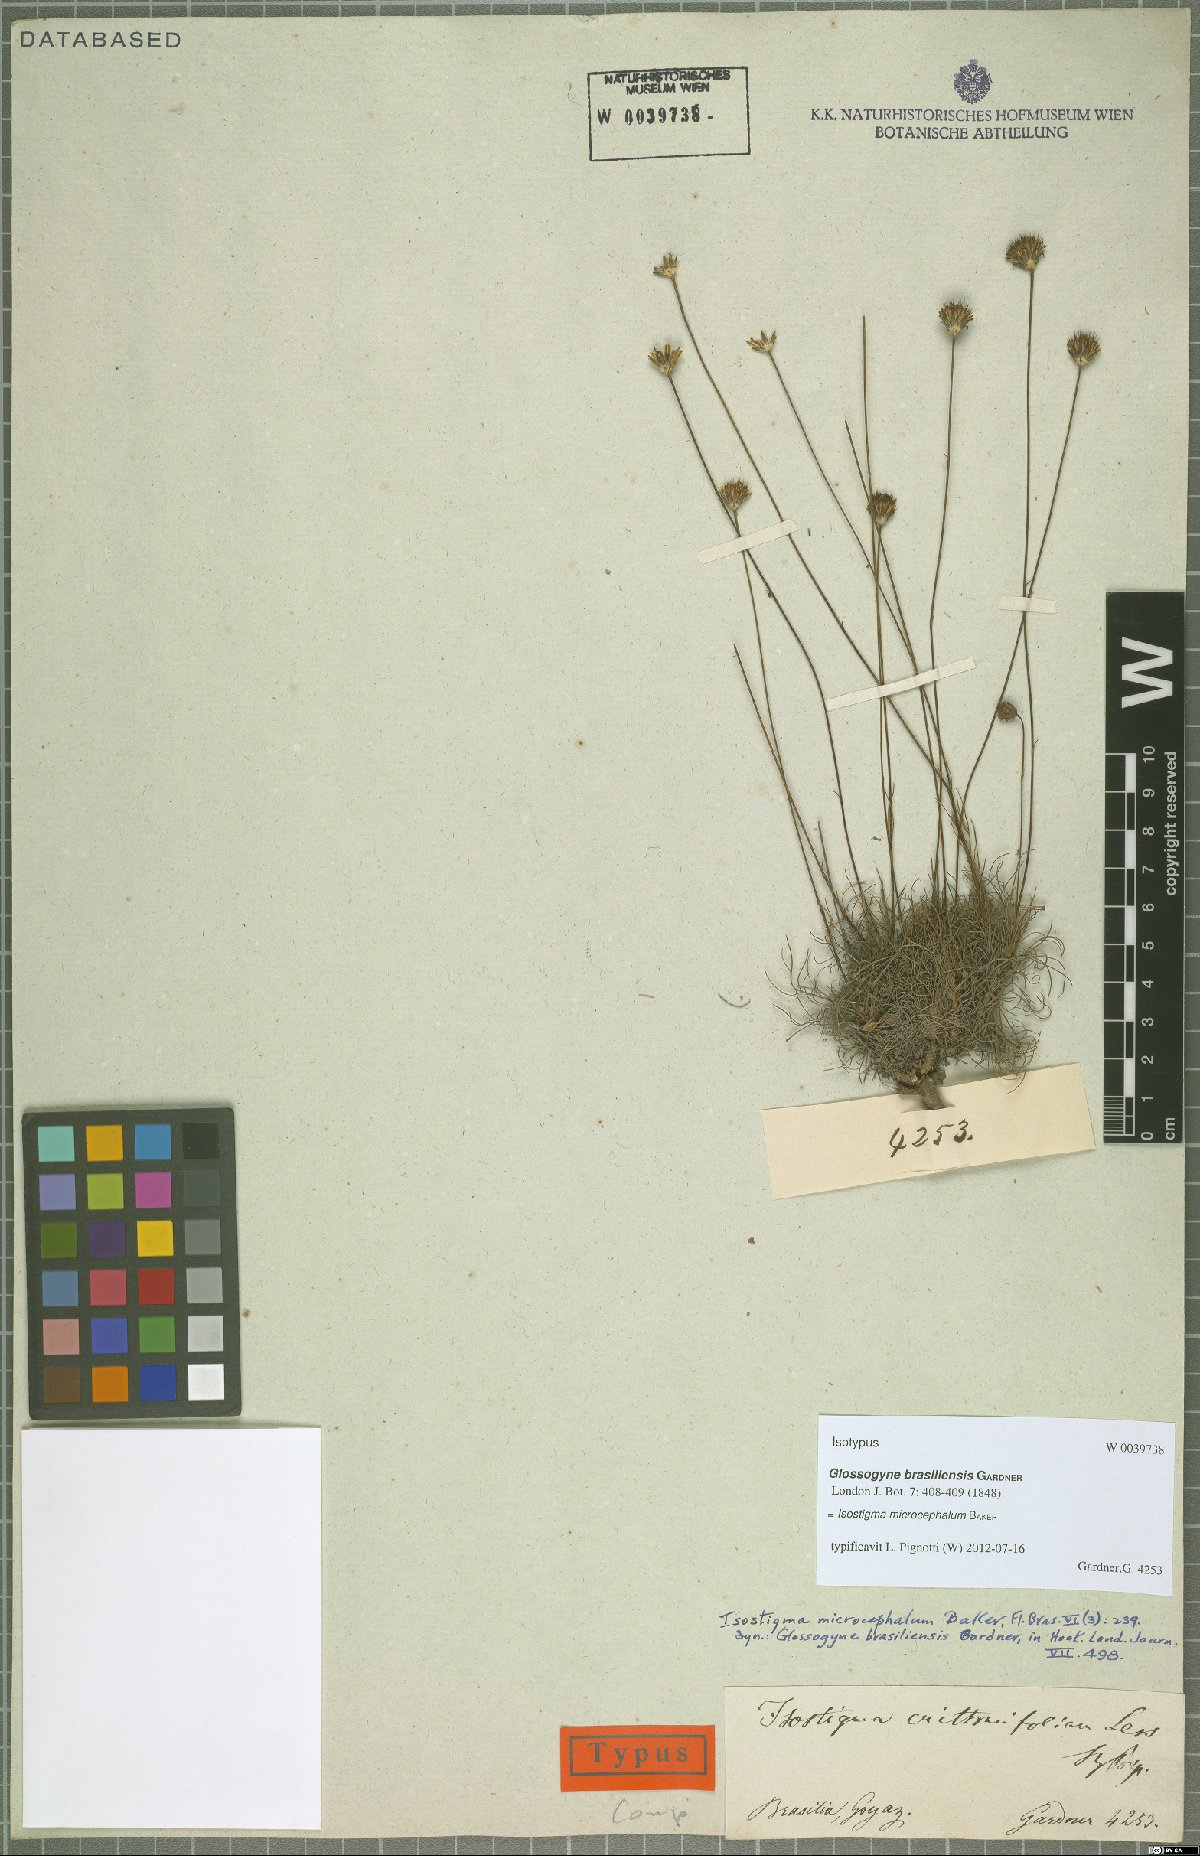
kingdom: Plantae
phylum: Tracheophyta
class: Magnoliopsida
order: Asterales
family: Asteraceae
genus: Isostigma
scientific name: Isostigma brasiliense
